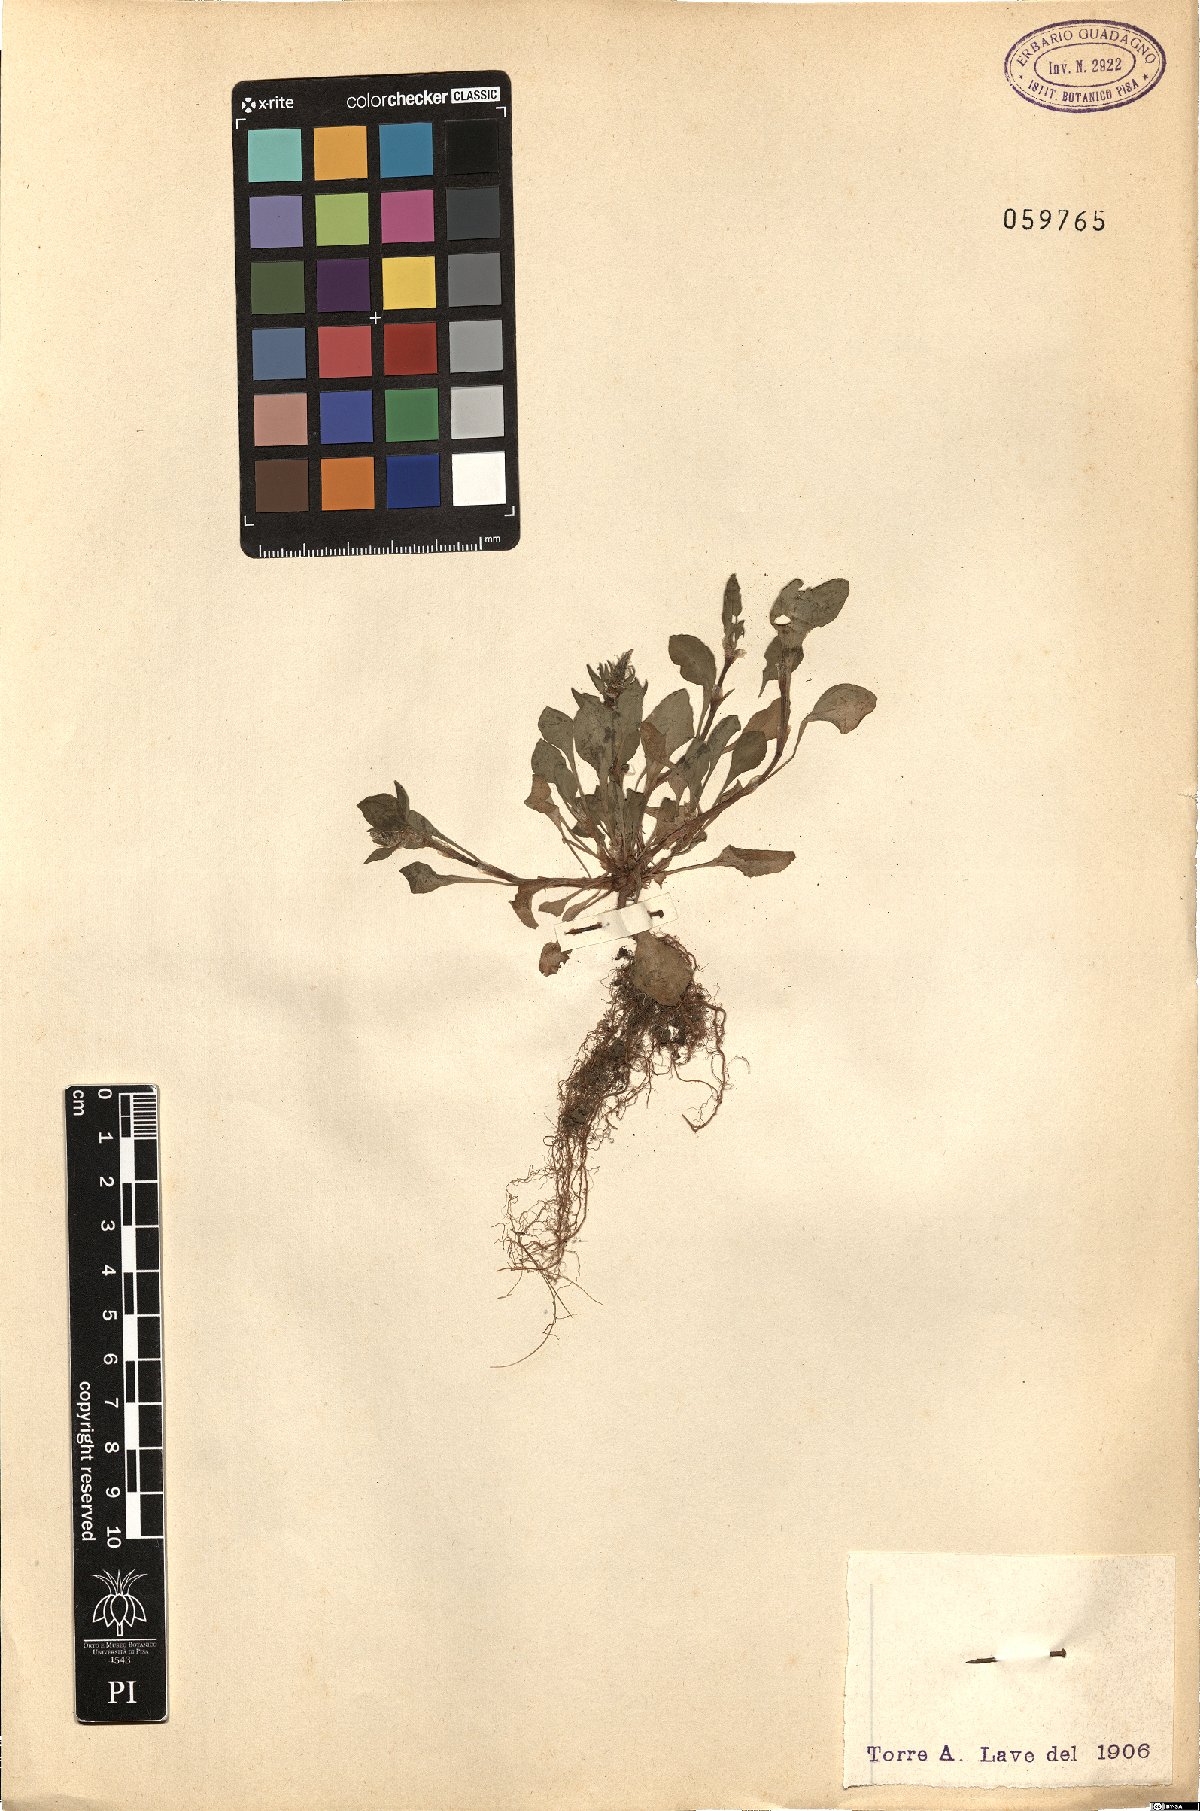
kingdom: Plantae
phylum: Tracheophyta
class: Magnoliopsida
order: Caryophyllales
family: Polygonaceae
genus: Rumex
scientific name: Rumex bucephalophorus
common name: Red dock
